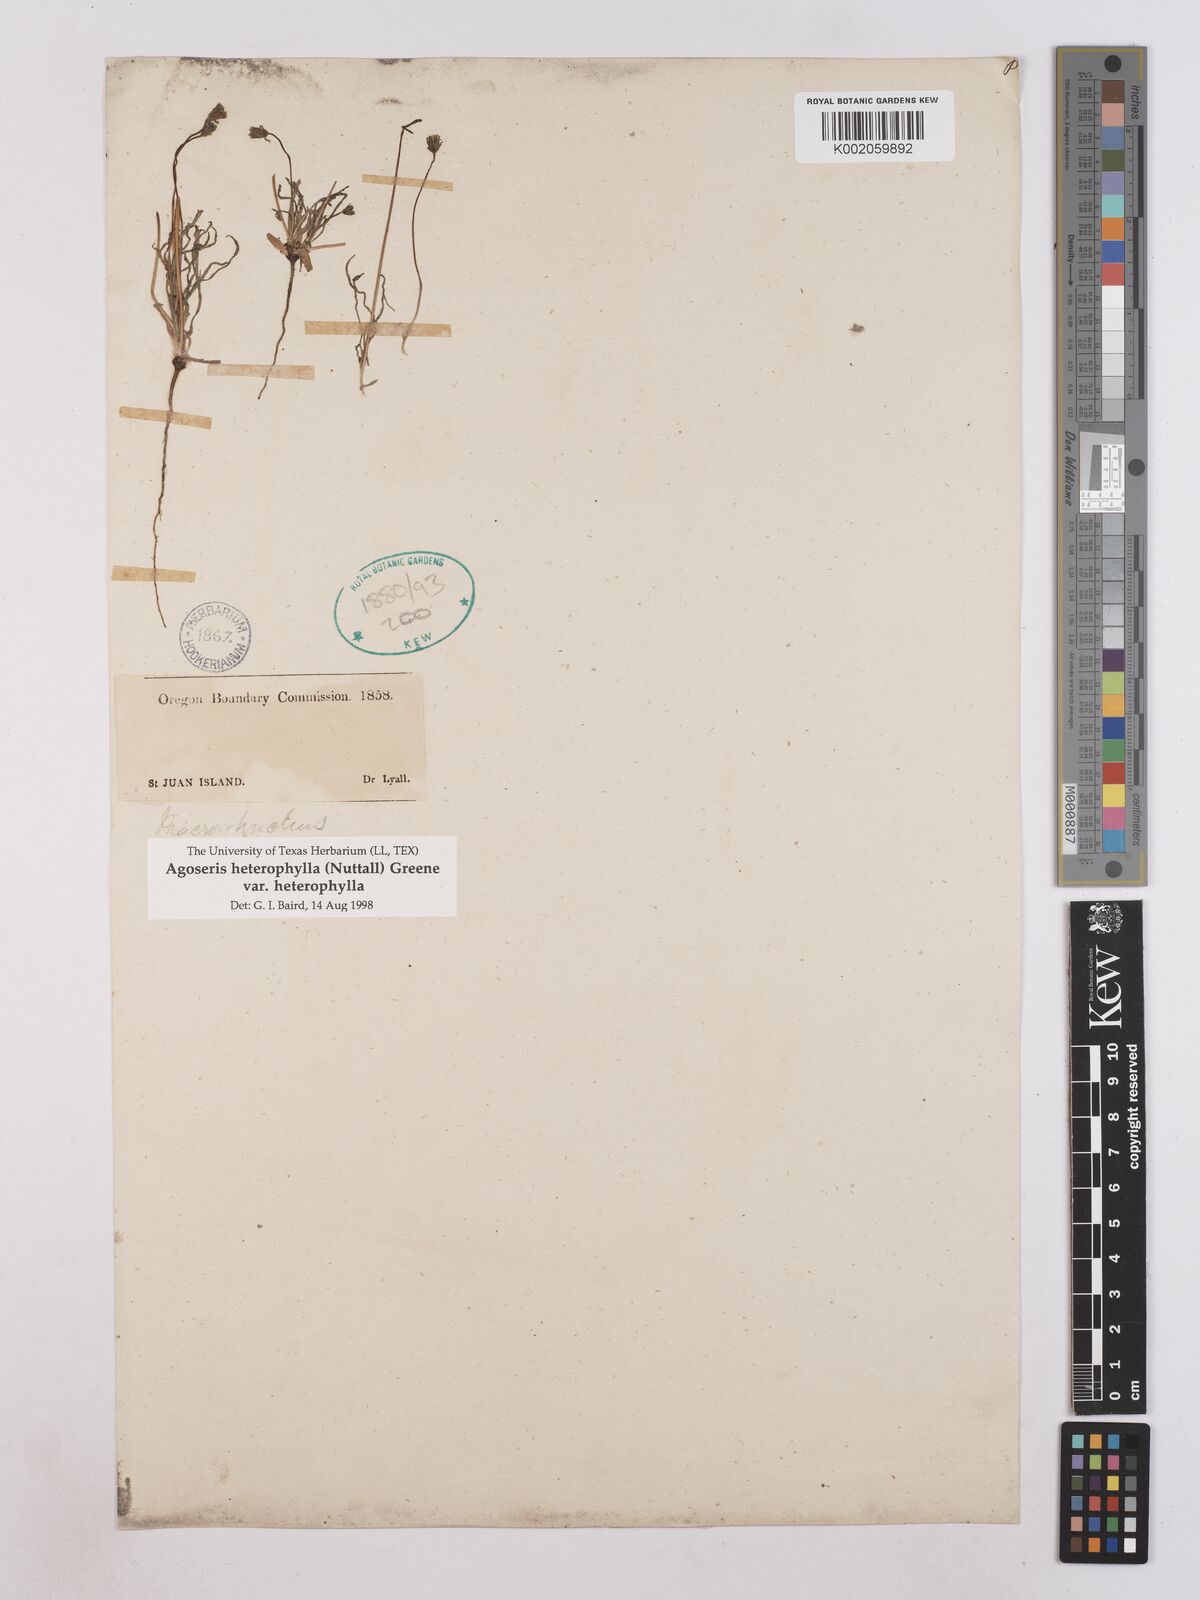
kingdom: Plantae
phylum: Tracheophyta
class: Magnoliopsida
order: Asterales
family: Asteraceae
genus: Agoseris
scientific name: Agoseris heterophylla
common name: Annual agoseris
